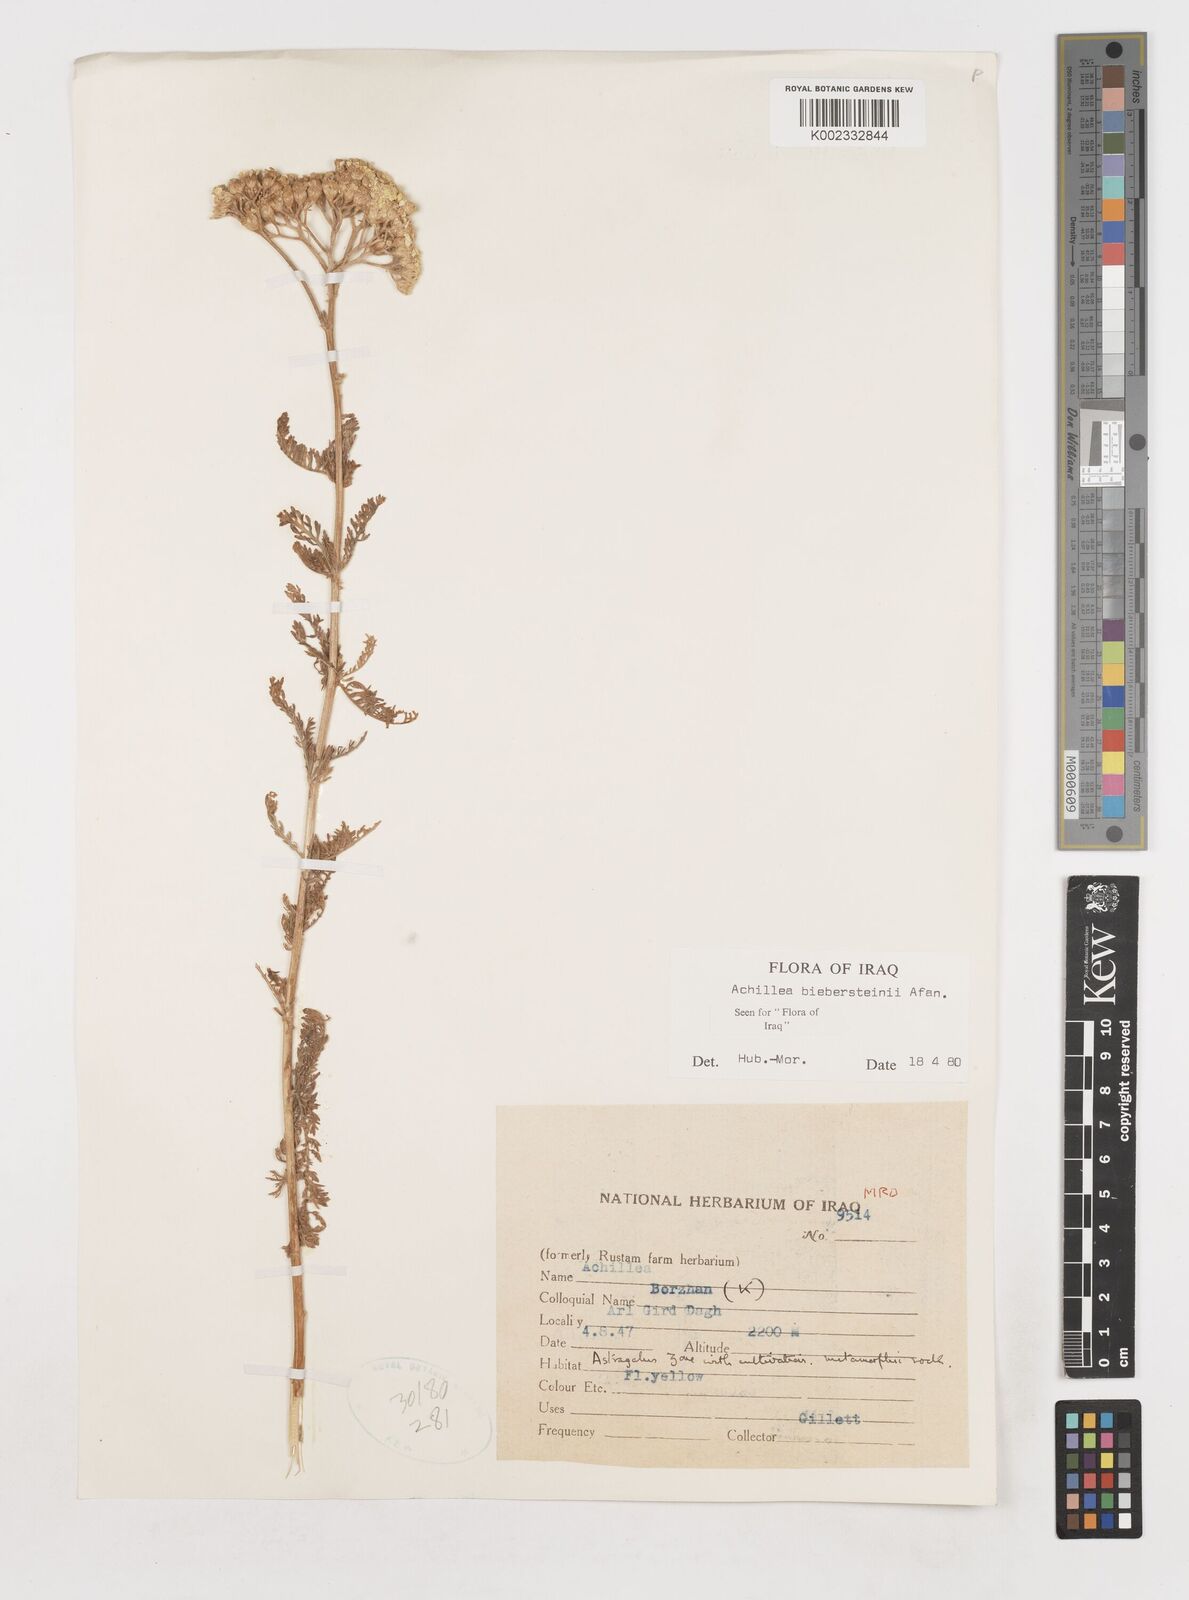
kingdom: Plantae
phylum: Tracheophyta
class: Magnoliopsida
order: Asterales
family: Asteraceae
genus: Achillea
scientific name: Achillea arabica
